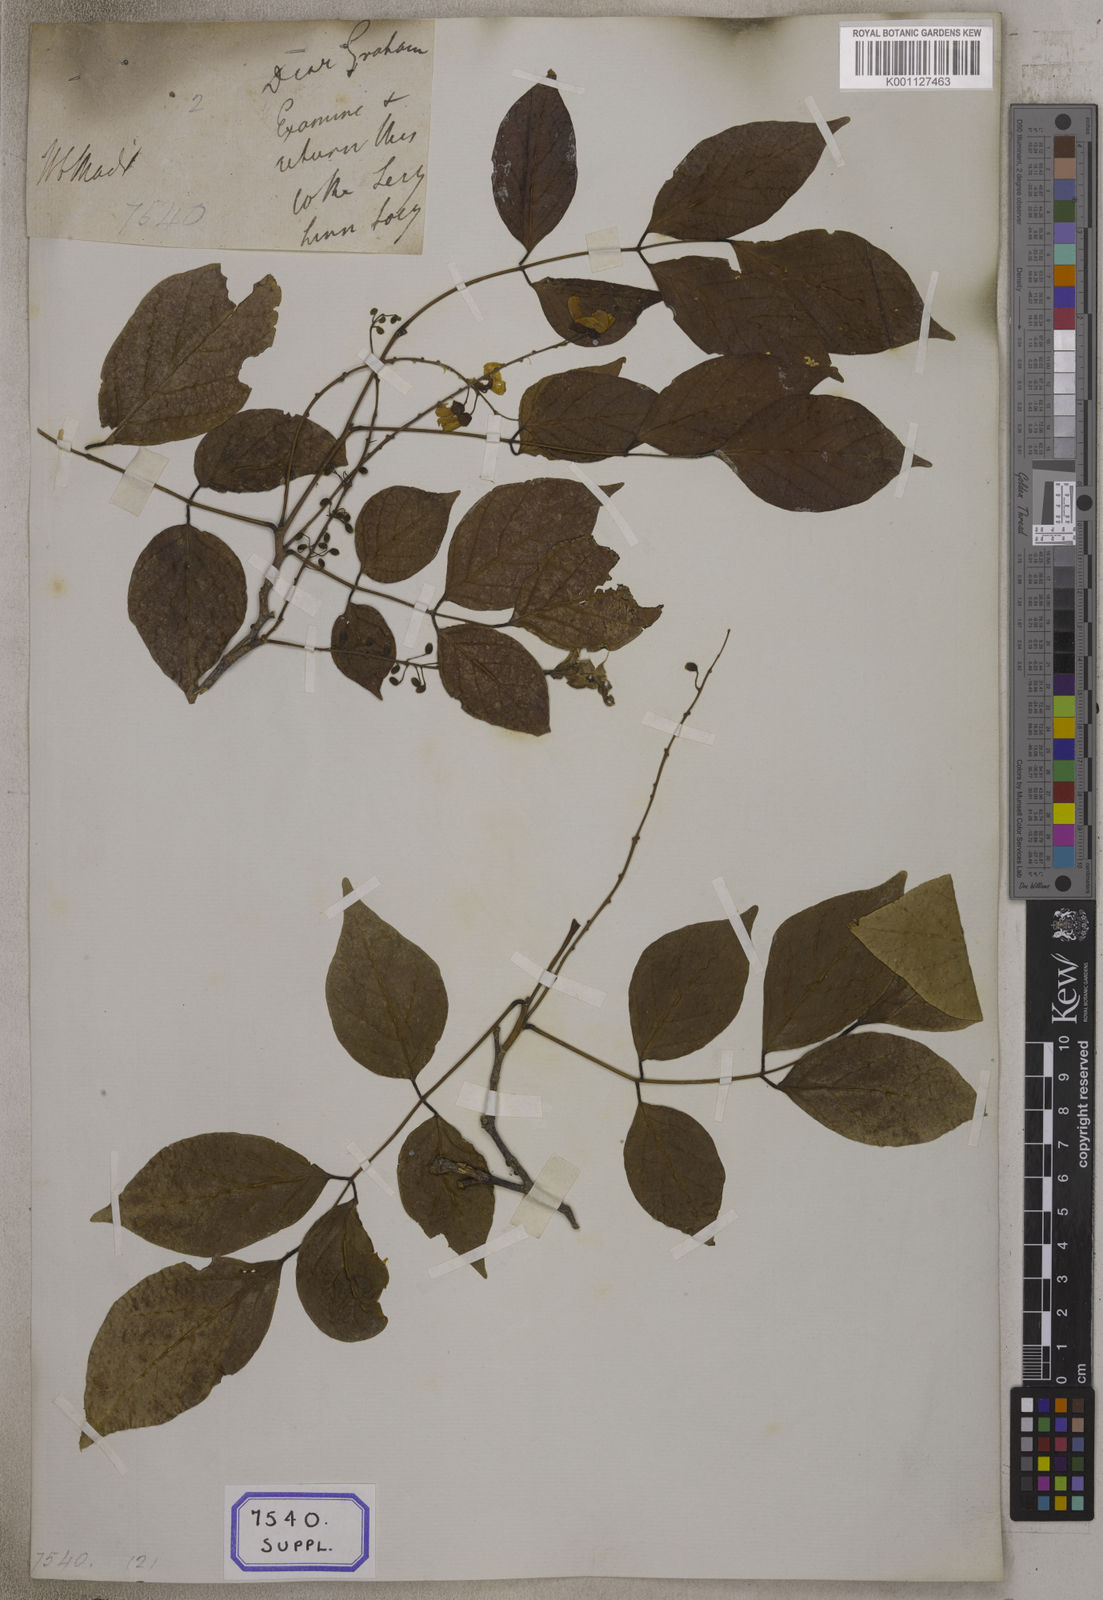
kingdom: Plantae
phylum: Tracheophyta
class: Magnoliopsida
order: Fabales
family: Fabaceae
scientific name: Fabaceae
